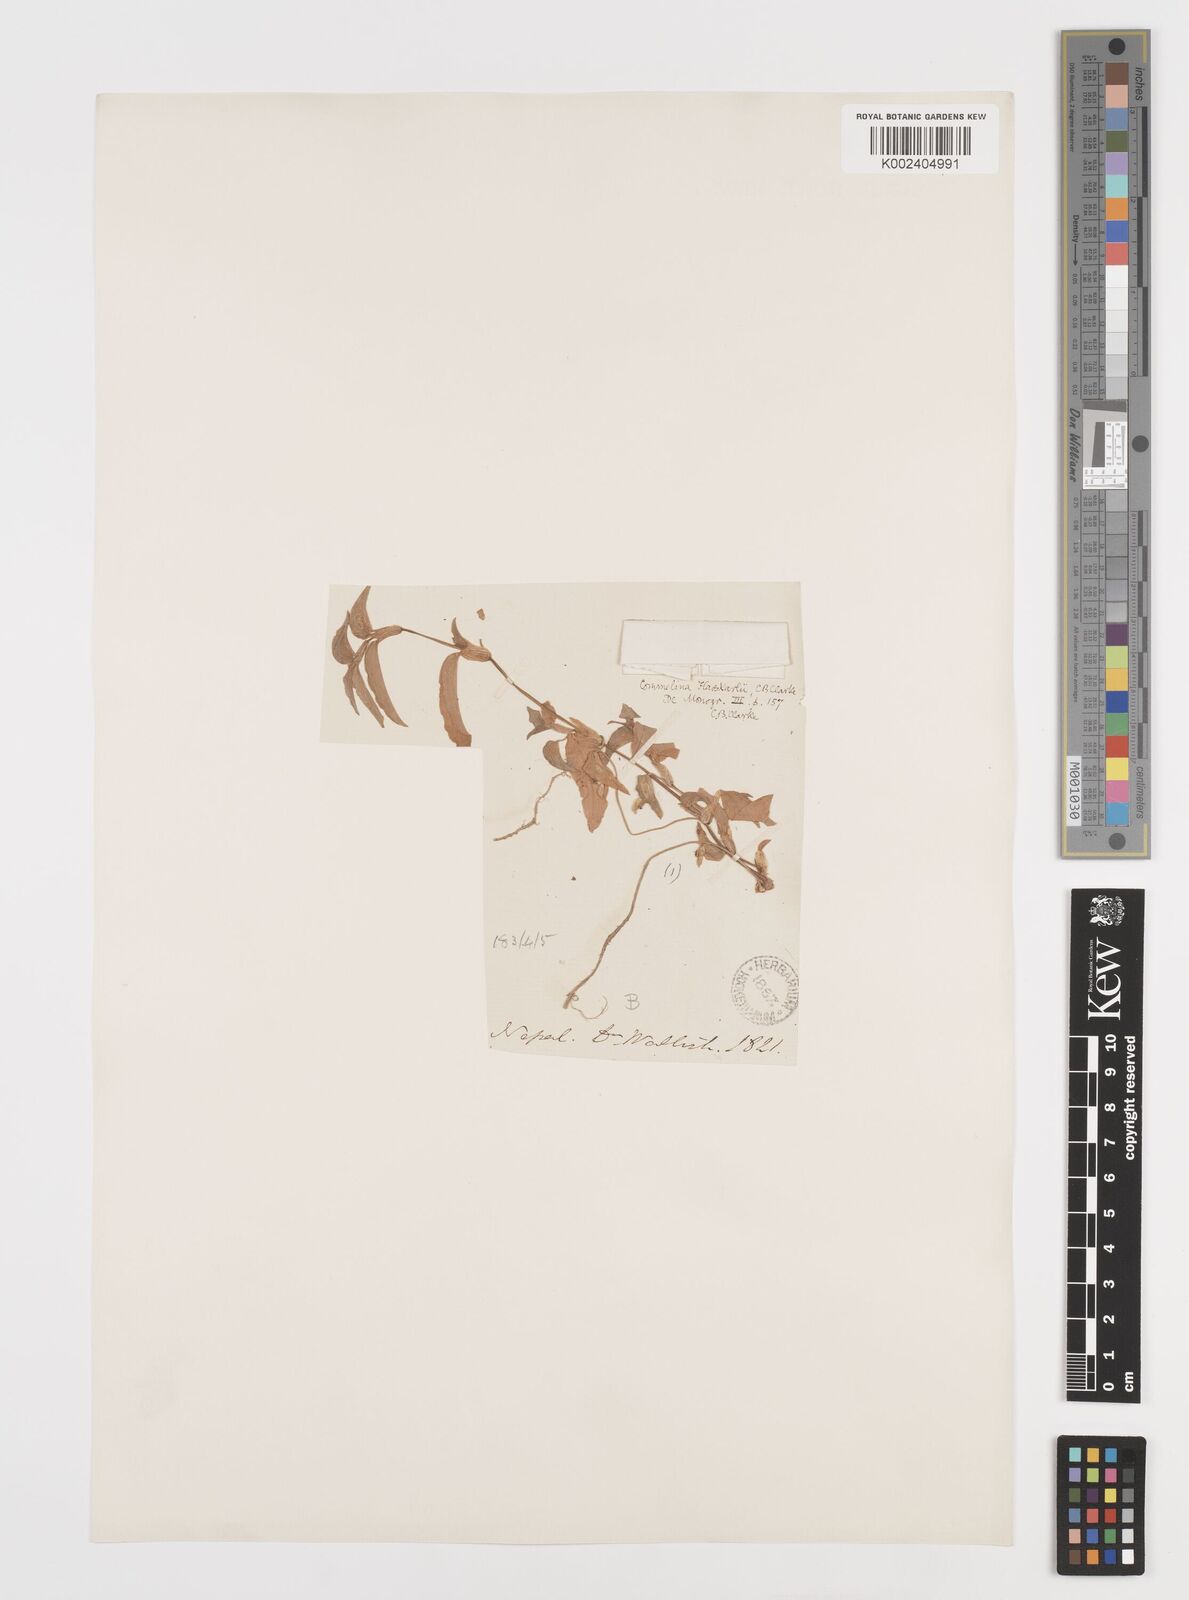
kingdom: Plantae
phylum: Tracheophyta
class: Liliopsida
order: Commelinales
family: Commelinaceae
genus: Commelina
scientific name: Commelina caroliniana
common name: Carolina dayflower
